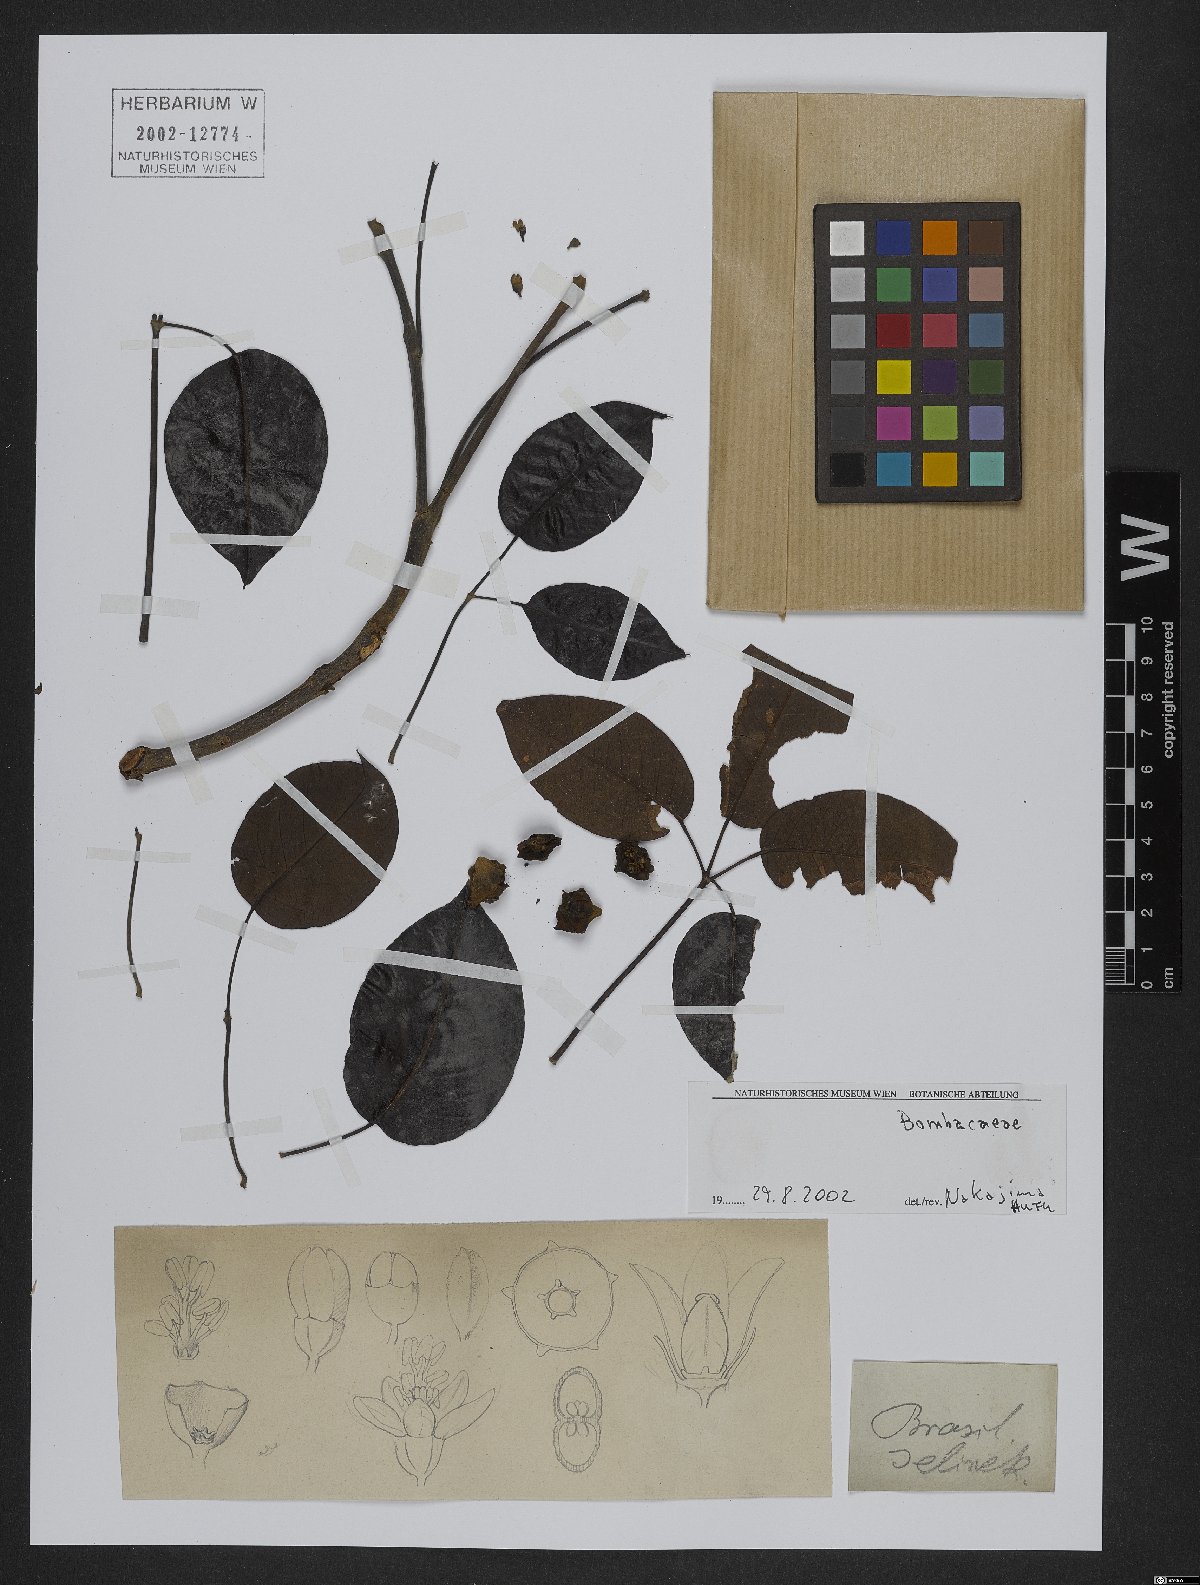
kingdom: Plantae
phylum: Tracheophyta
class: Magnoliopsida
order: Malvales
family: Malvaceae
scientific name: Malvaceae
